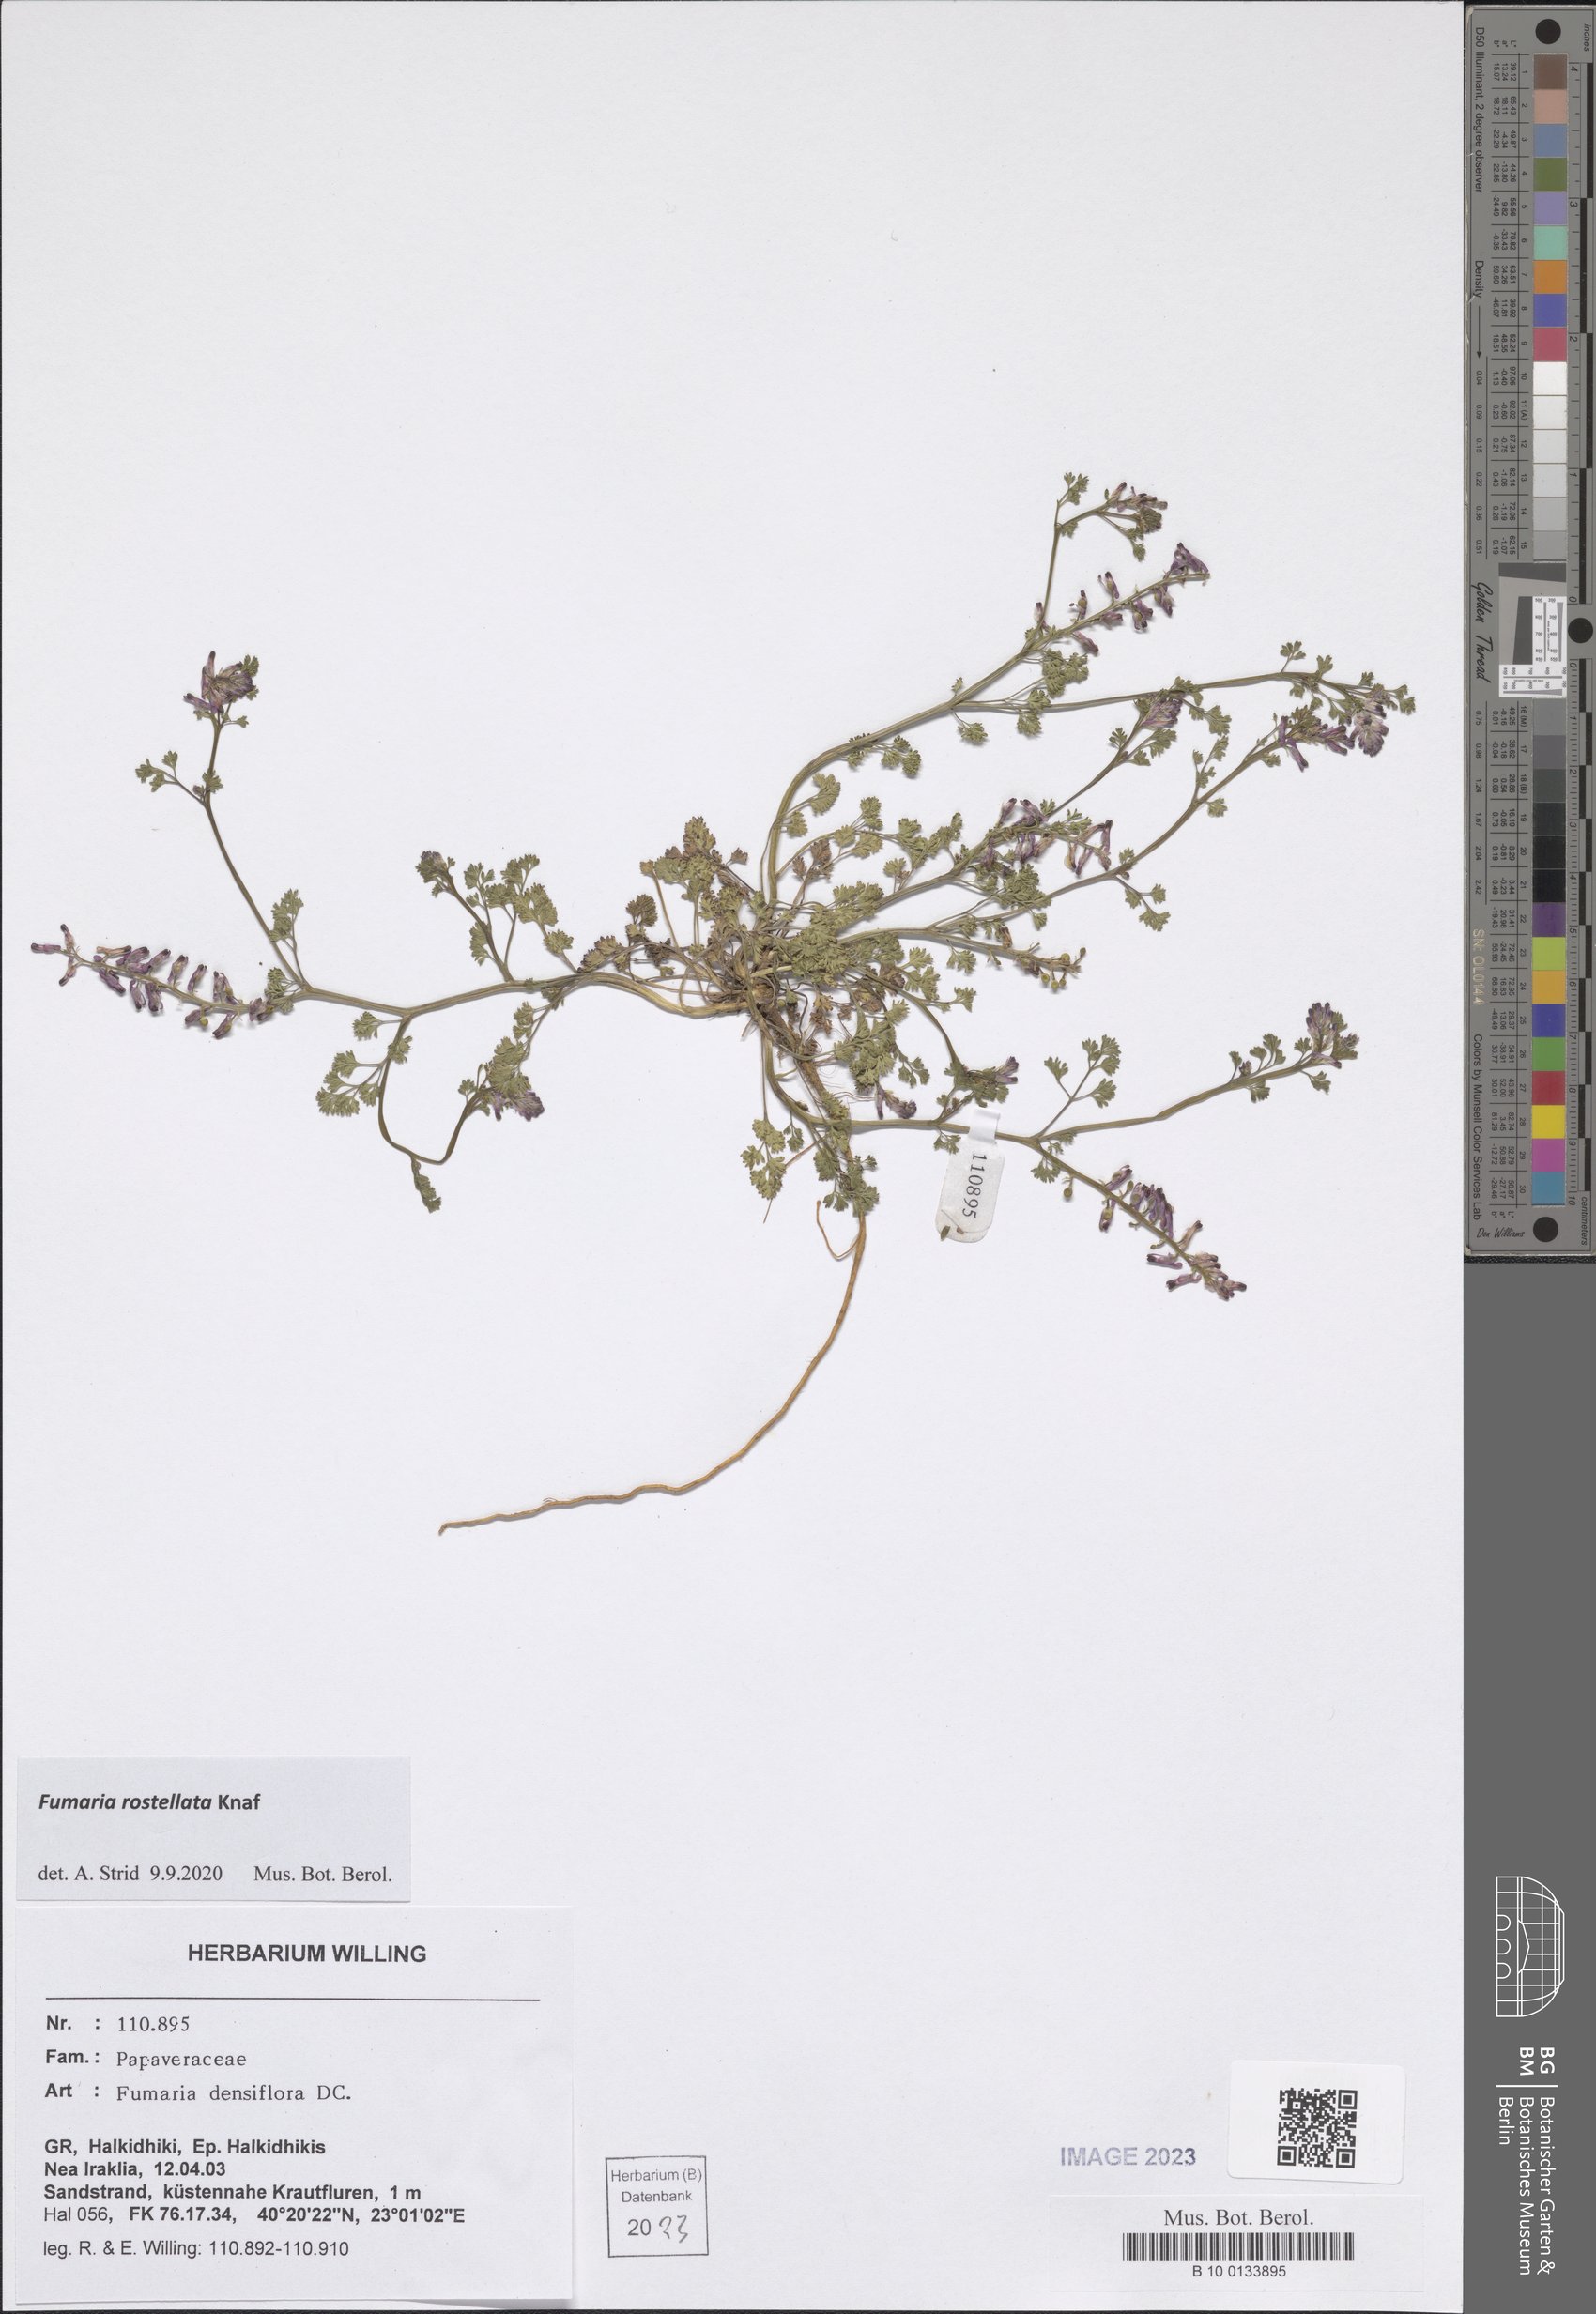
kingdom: Plantae
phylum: Tracheophyta
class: Magnoliopsida
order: Ranunculales
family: Papaveraceae
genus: Fumaria
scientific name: Fumaria rostellata
